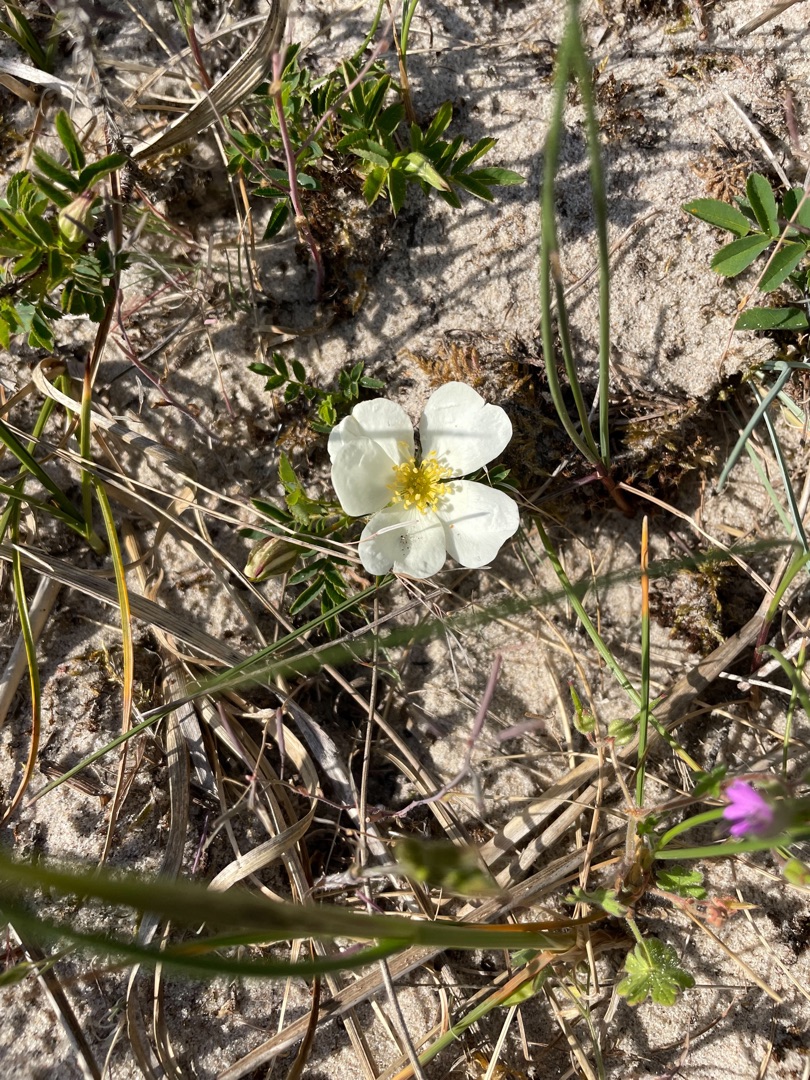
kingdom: Plantae
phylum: Tracheophyta
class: Magnoliopsida
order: Rosales
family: Rosaceae
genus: Rosa
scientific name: Rosa spinosissima
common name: Klit-rose
